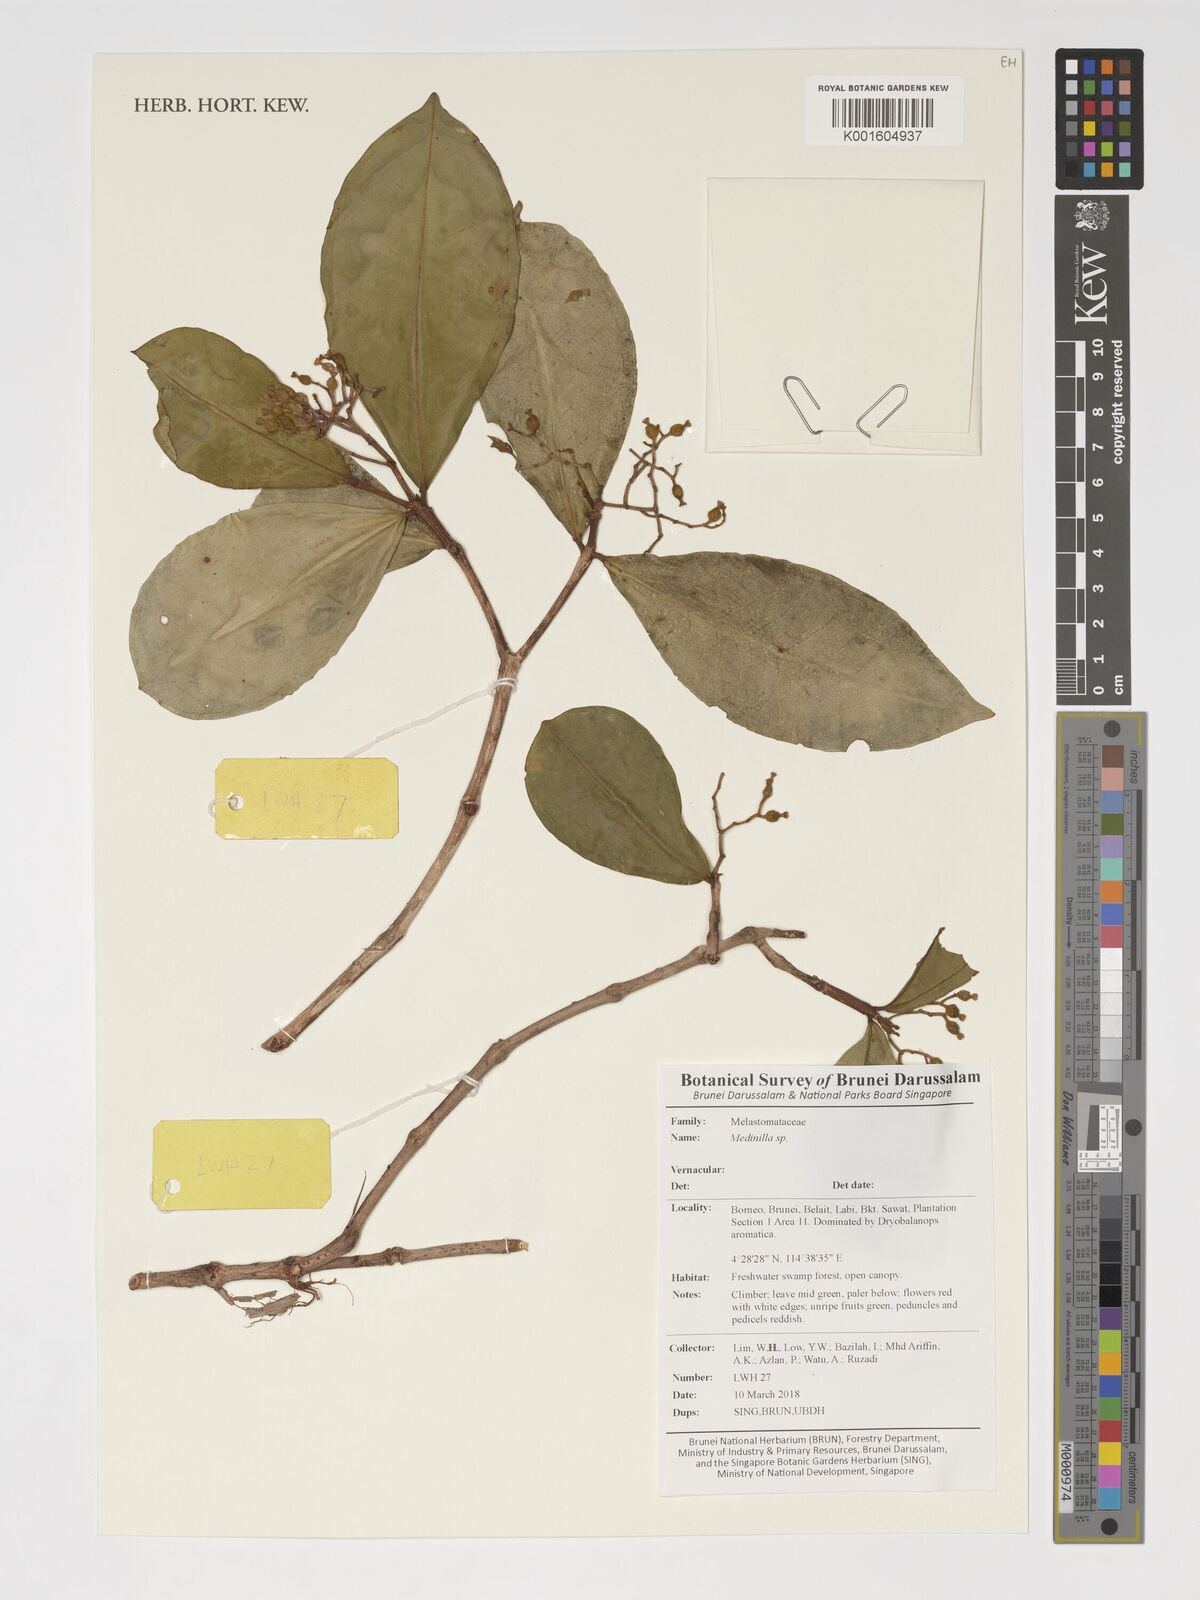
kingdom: Plantae
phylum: Tracheophyta
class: Magnoliopsida
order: Myrtales
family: Melastomataceae
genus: Medinilla
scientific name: Medinilla
